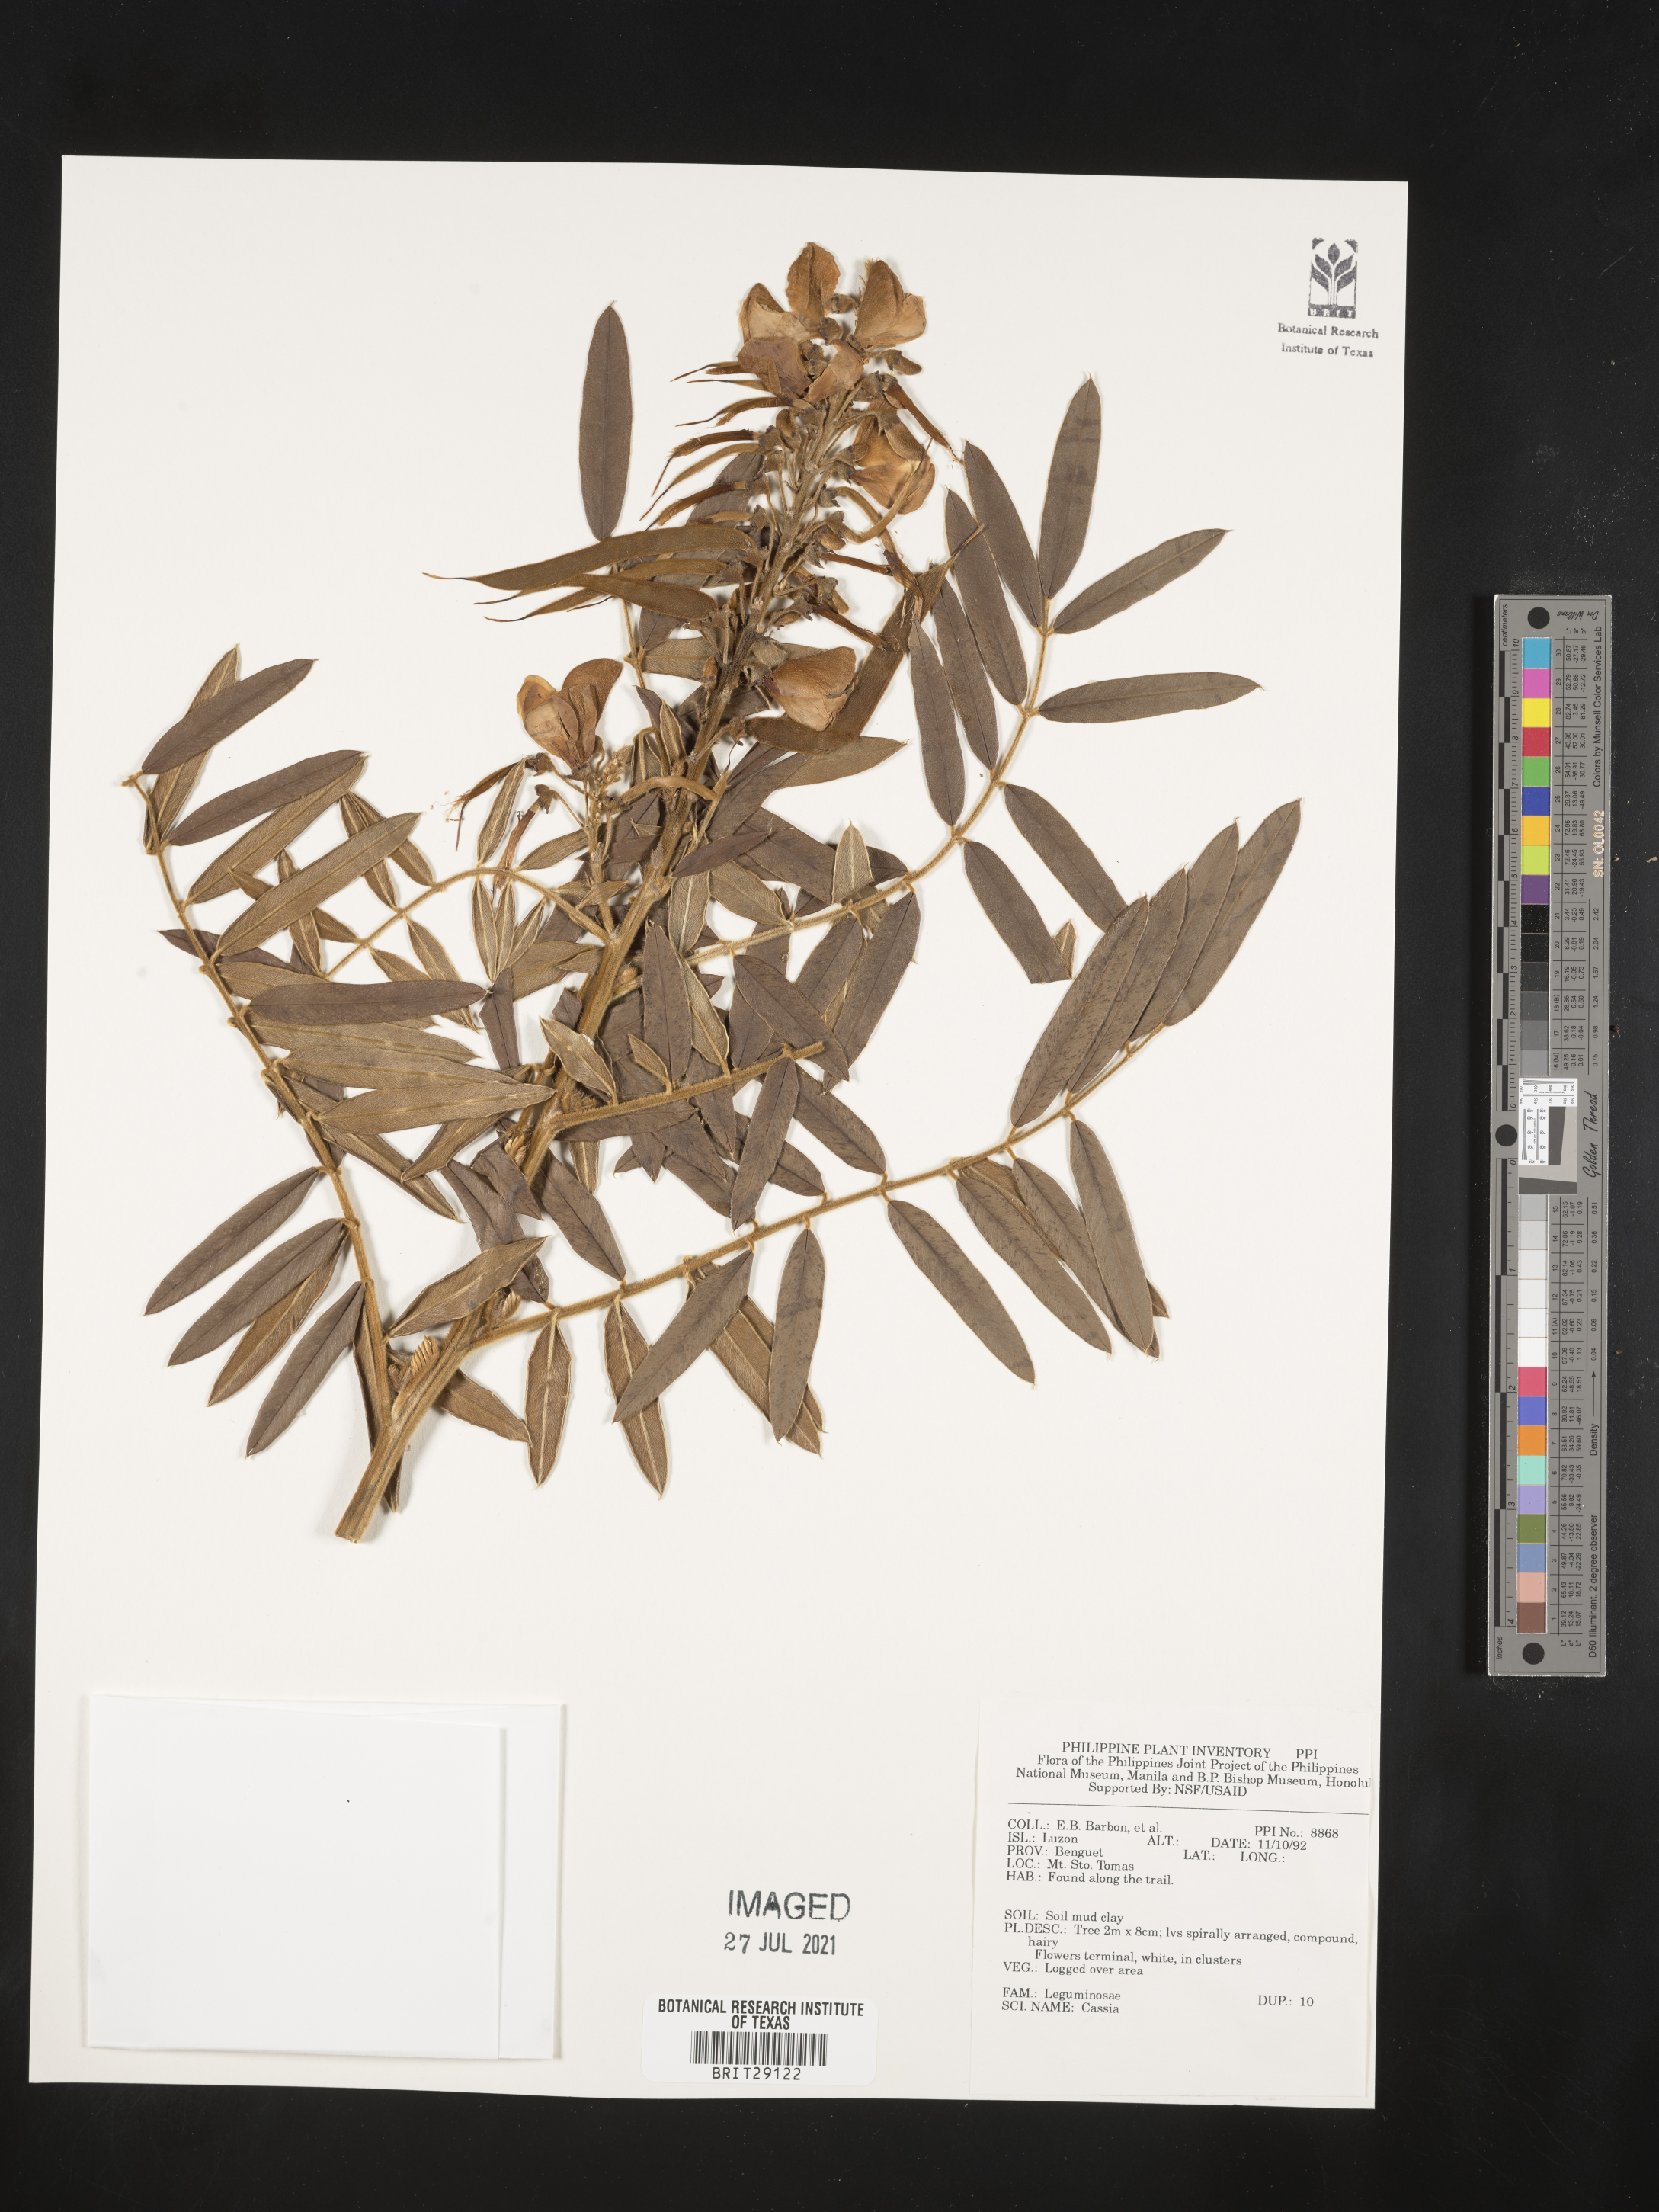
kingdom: Plantae
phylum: Tracheophyta
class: Magnoliopsida
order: Fabales
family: Fabaceae
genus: Cassia
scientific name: Cassia
